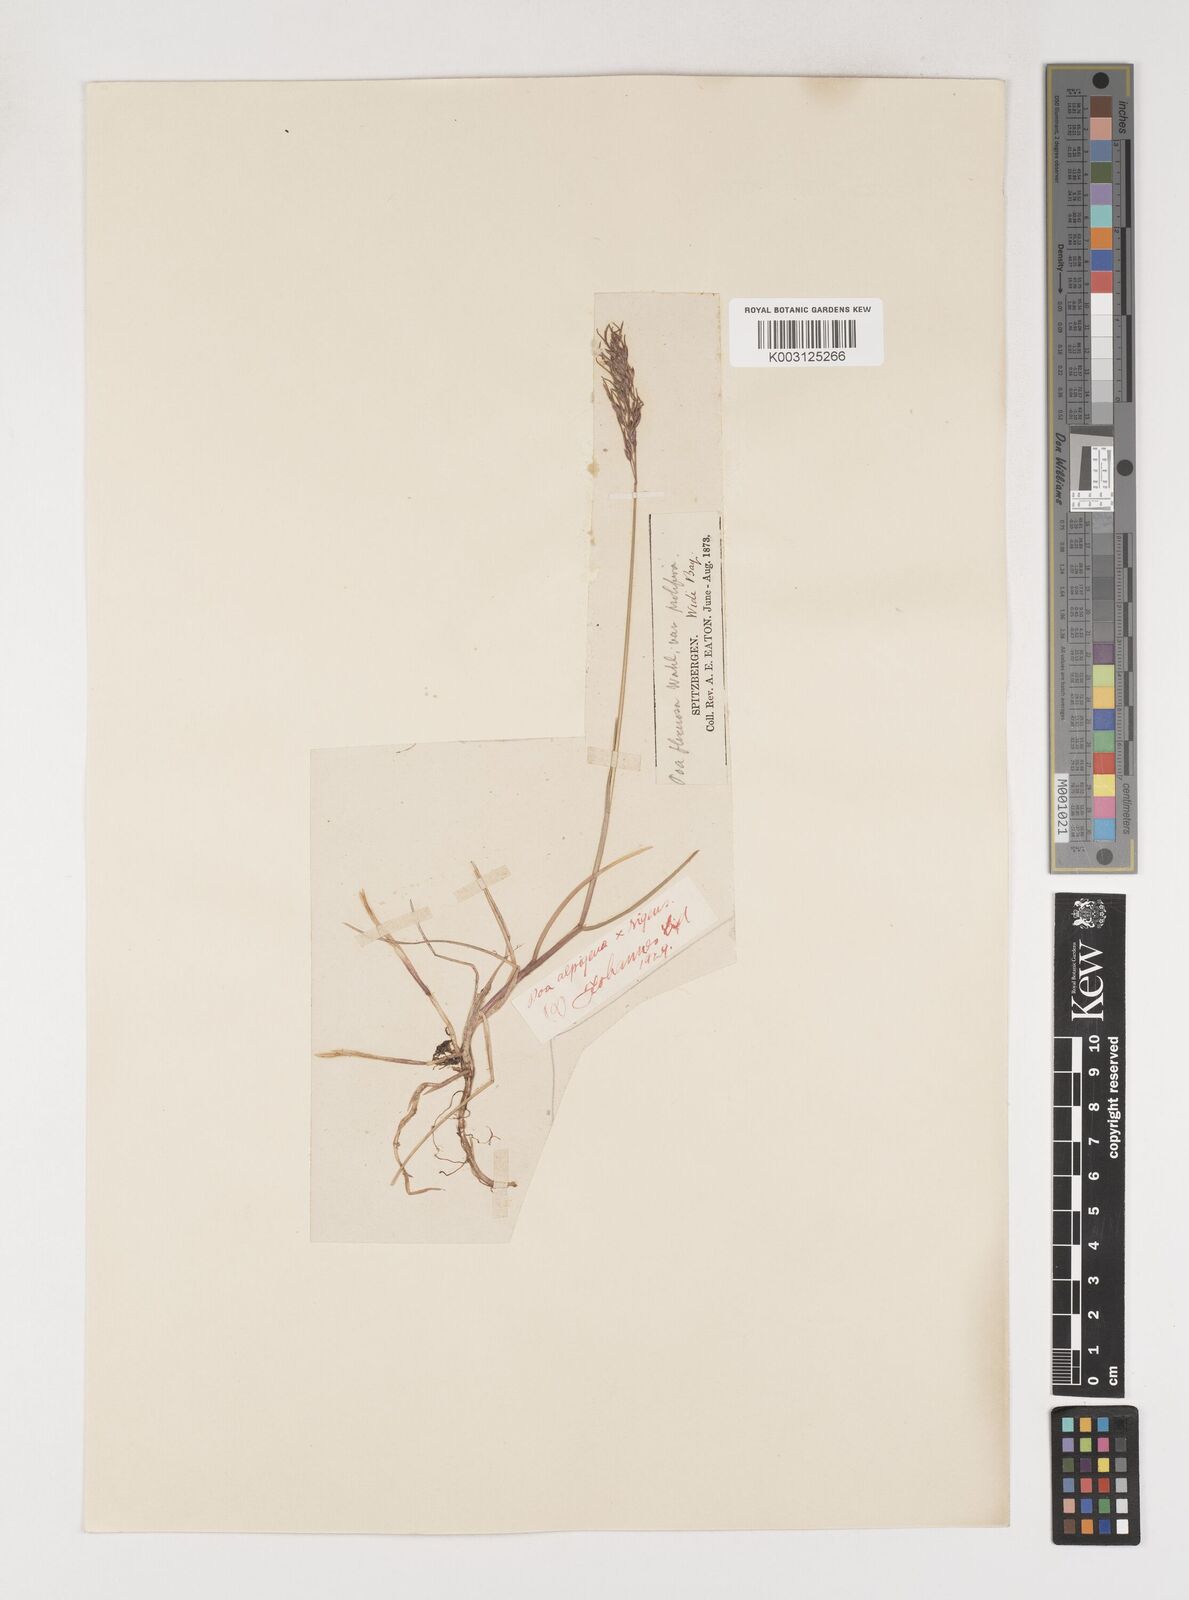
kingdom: Plantae
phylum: Tracheophyta
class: Liliopsida
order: Poales
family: Poaceae
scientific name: Poaceae
